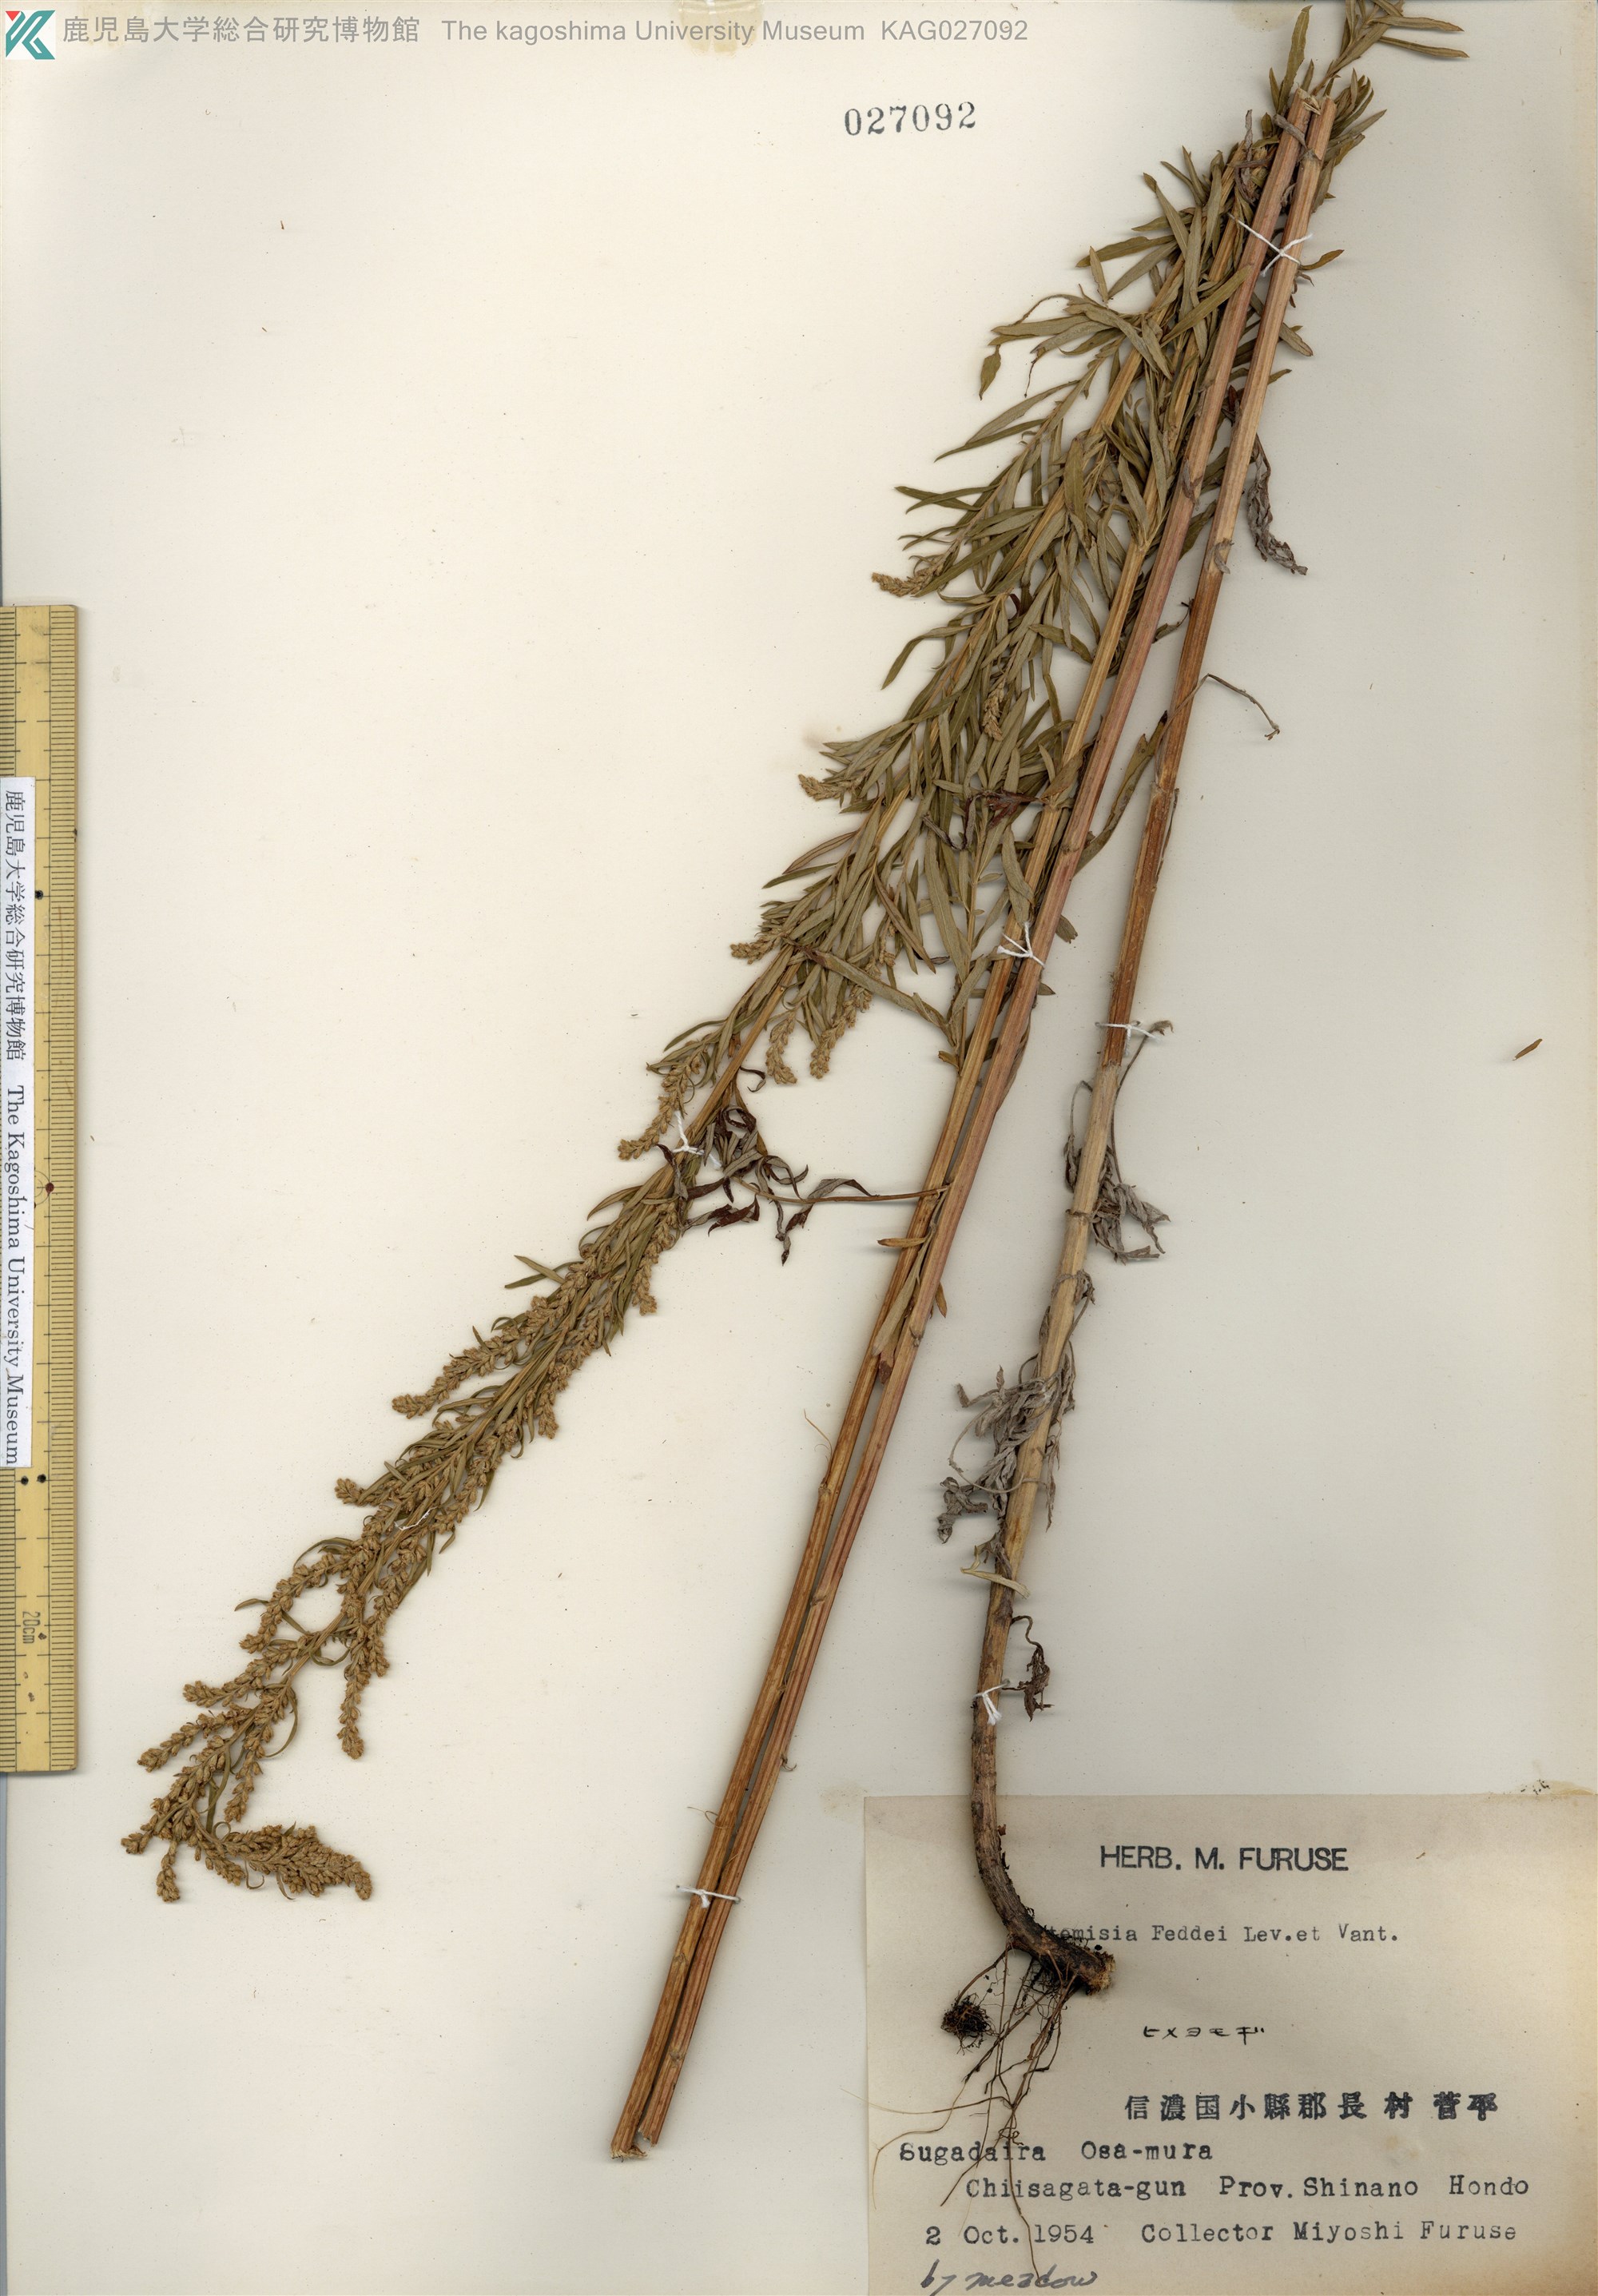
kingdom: Plantae
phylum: Tracheophyta
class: Magnoliopsida
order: Asterales
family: Asteraceae
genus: Artemisia
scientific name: Artemisia lancea
